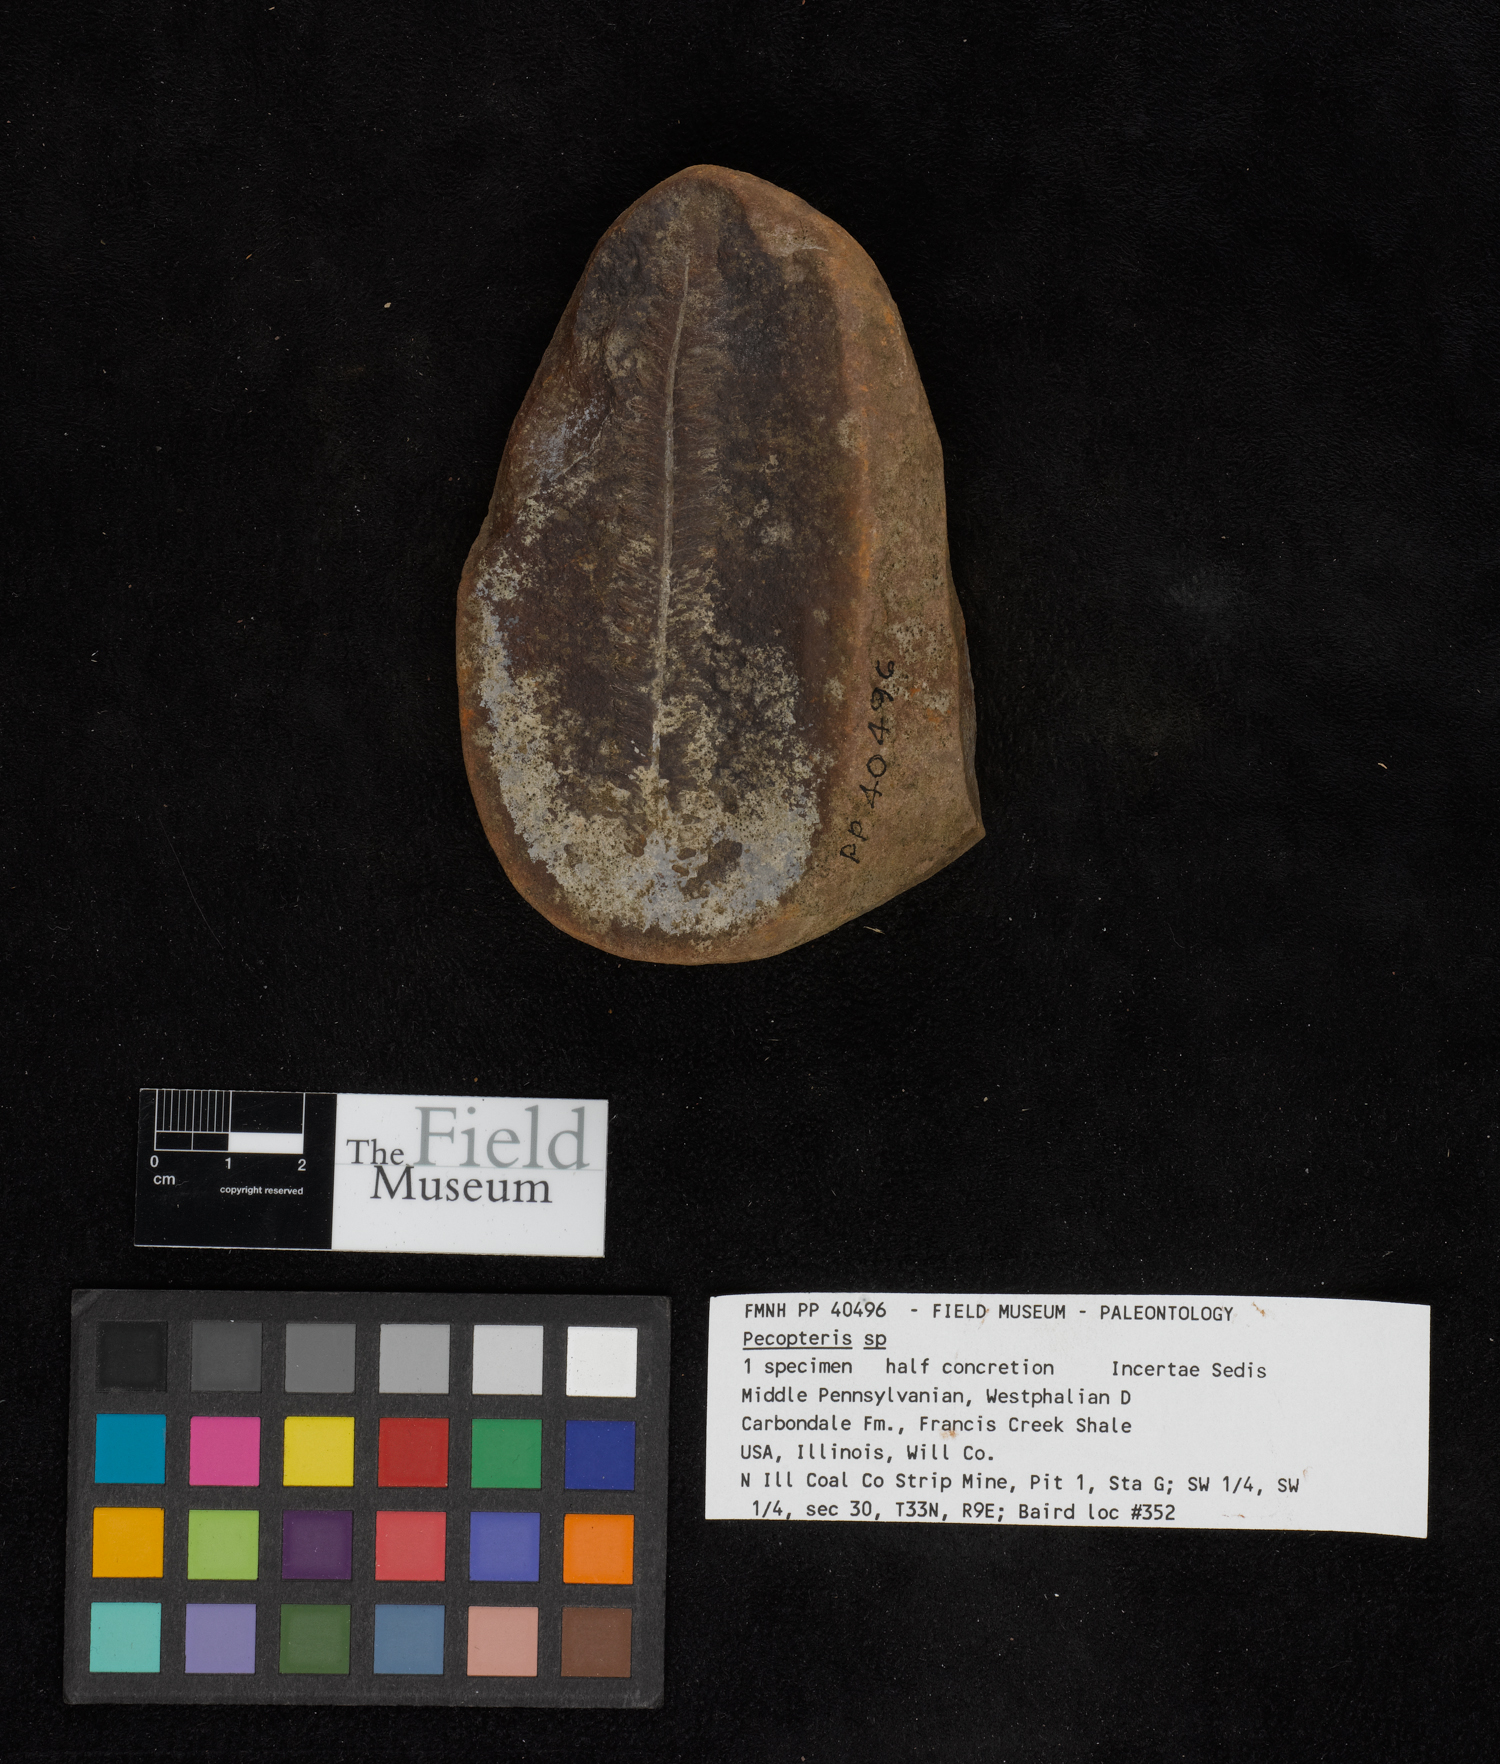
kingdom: Plantae
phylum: Tracheophyta
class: Polypodiopsida
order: Marattiales
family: Asterothecaceae
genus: Pecopteris
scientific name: Pecopteris
